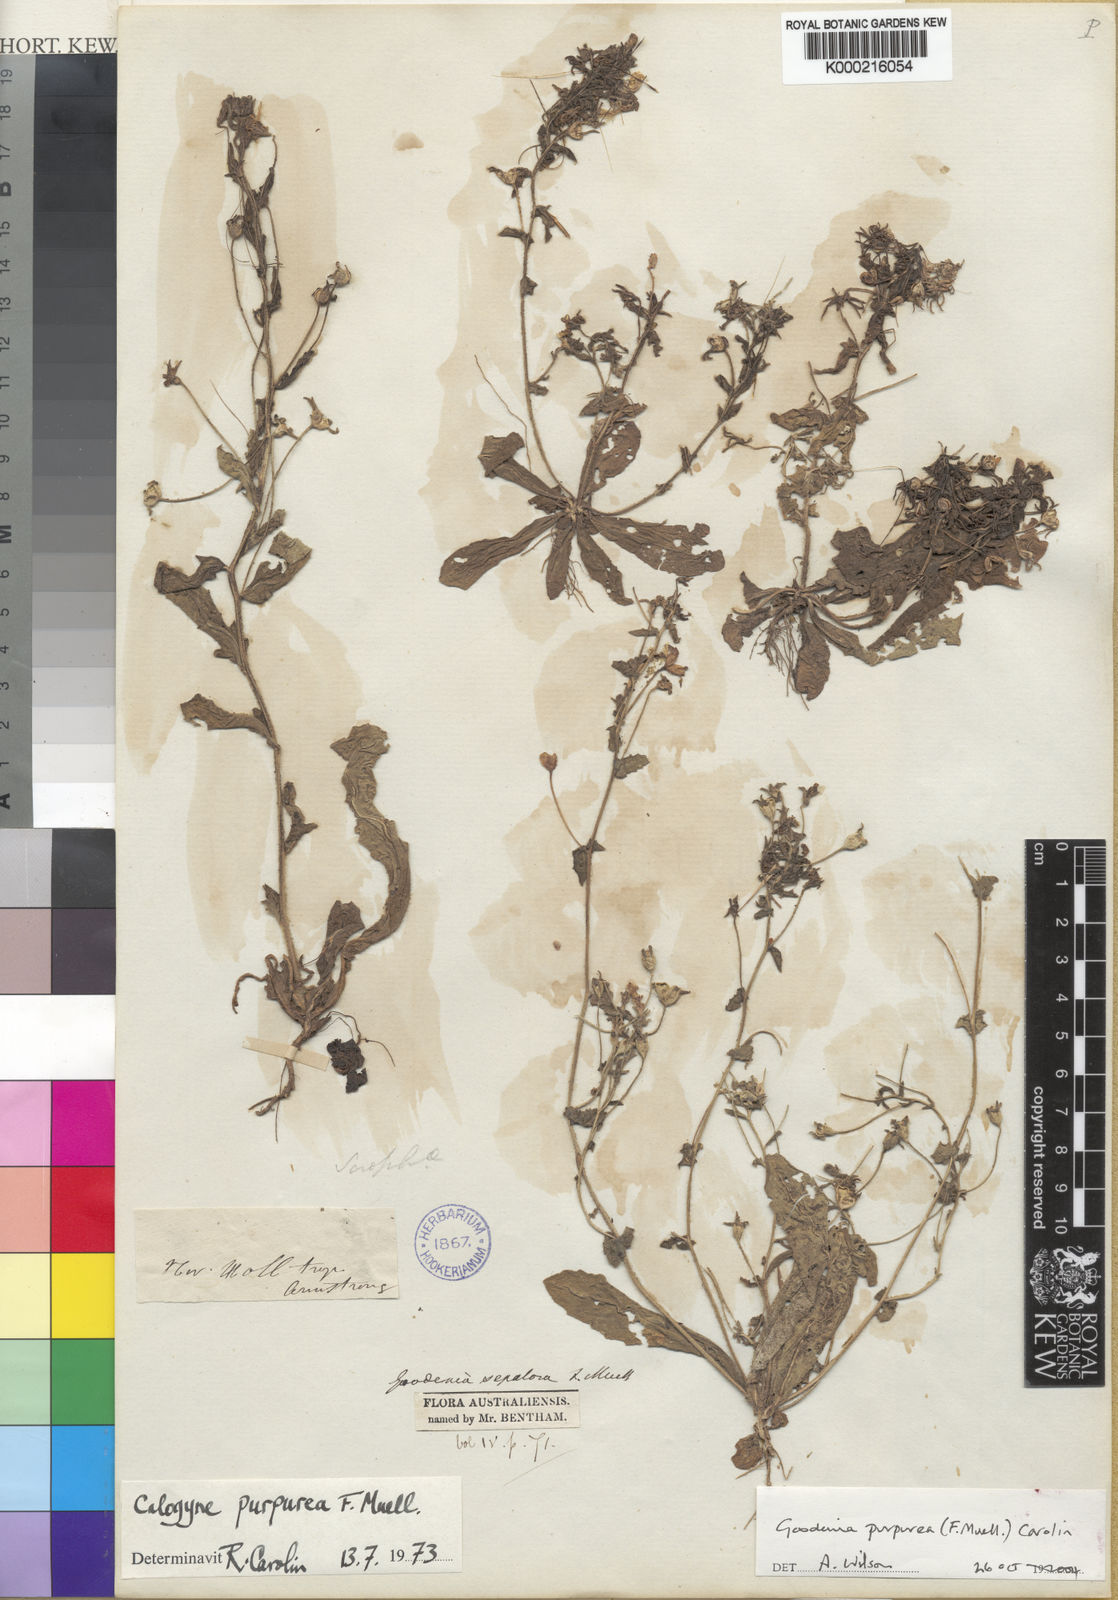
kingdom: Plantae
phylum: Tracheophyta
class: Magnoliopsida
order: Asterales
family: Goodeniaceae
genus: Goodenia
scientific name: Goodenia purpurea
